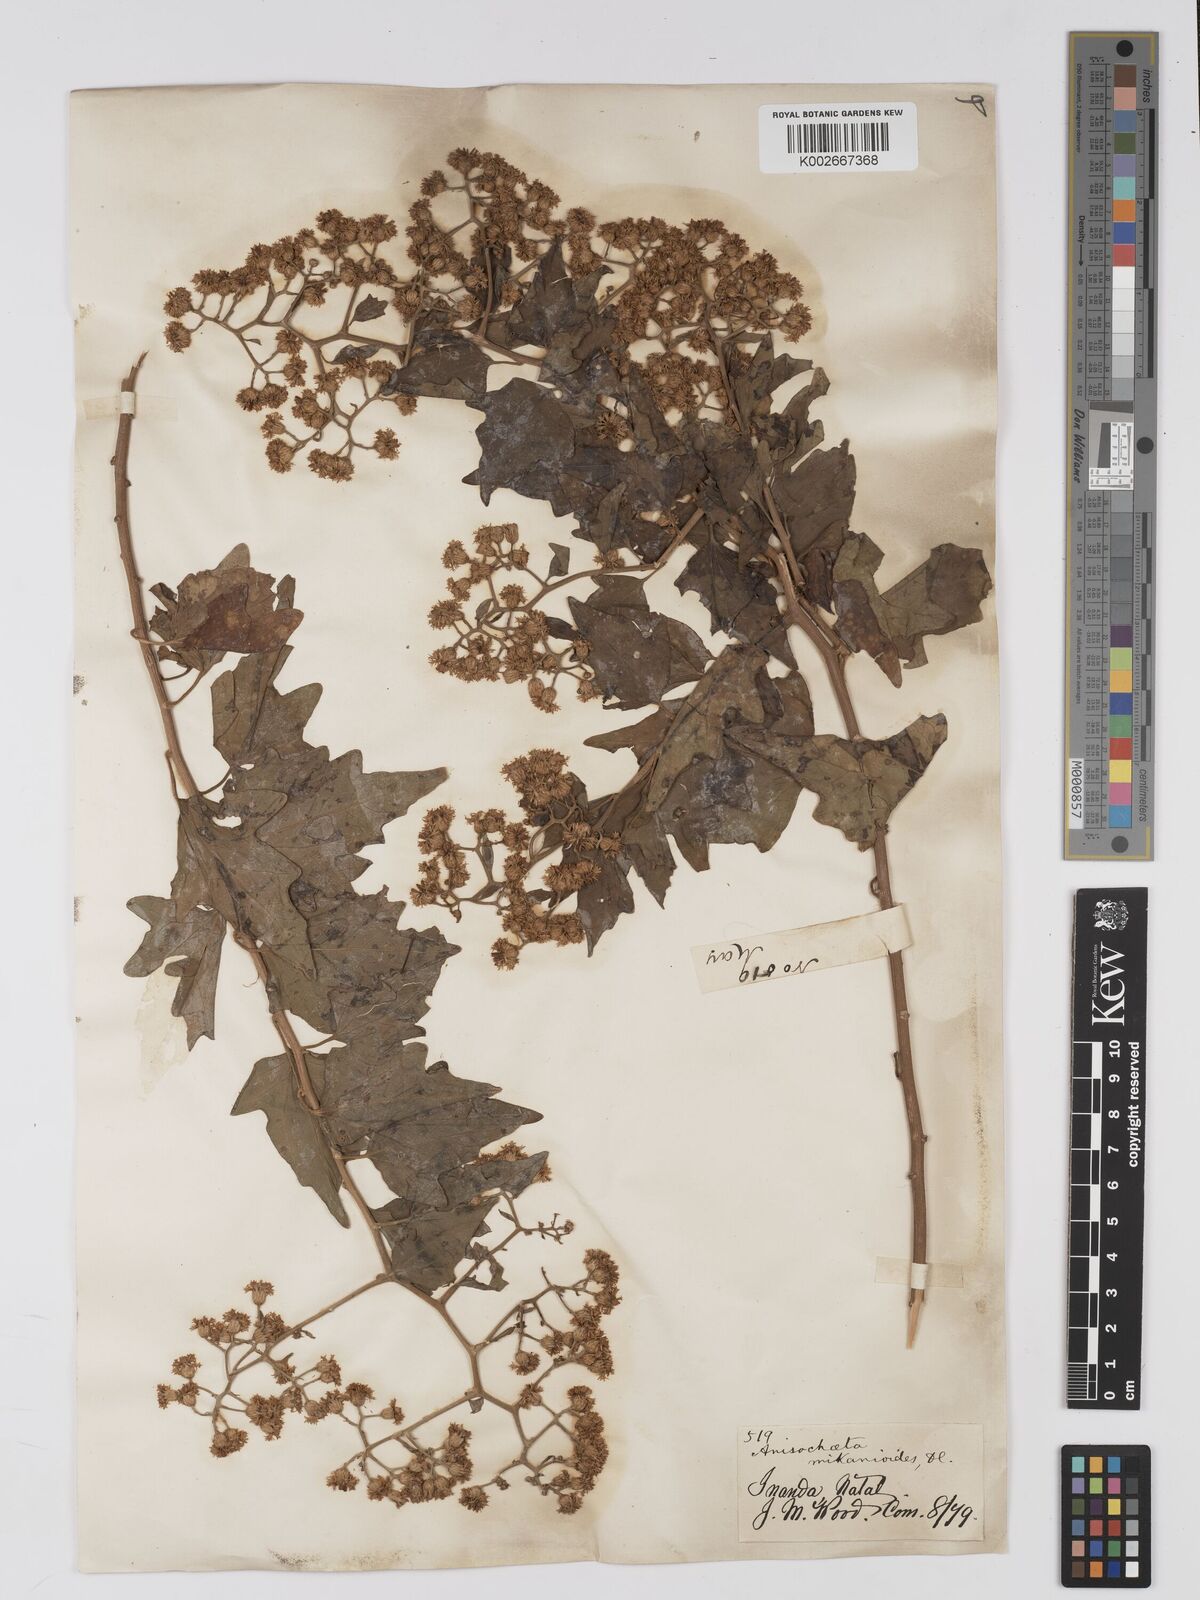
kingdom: Plantae
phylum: Tracheophyta
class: Magnoliopsida
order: Asterales
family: Asteraceae
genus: Anisochaeta
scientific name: Anisochaeta mikanioides
